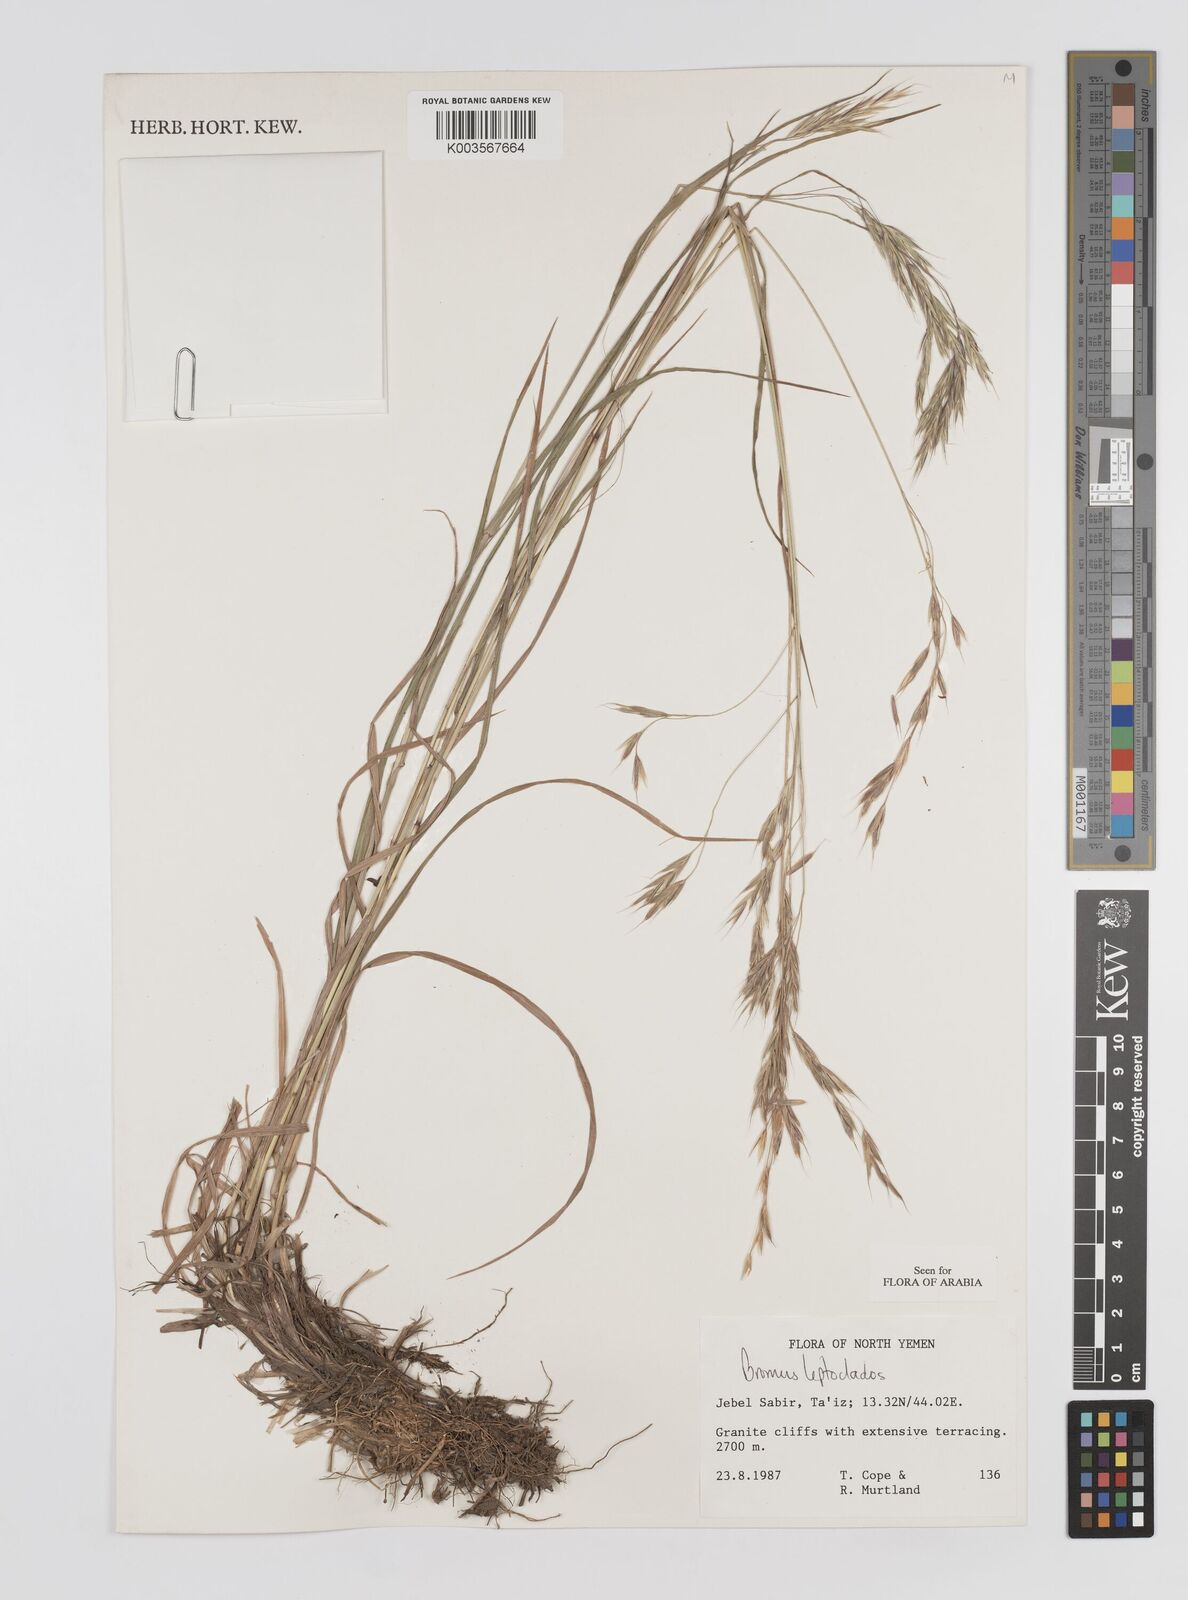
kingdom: Plantae
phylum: Tracheophyta
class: Liliopsida
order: Poales
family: Poaceae
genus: Bromus
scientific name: Bromus leptoclados
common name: Mountain bromegrass
